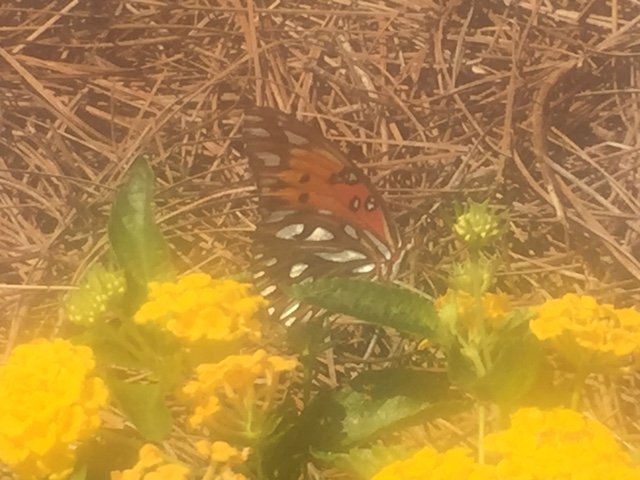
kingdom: Animalia
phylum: Arthropoda
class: Insecta
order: Lepidoptera
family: Nymphalidae
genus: Dione
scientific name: Dione vanillae
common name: Gulf Fritillary
